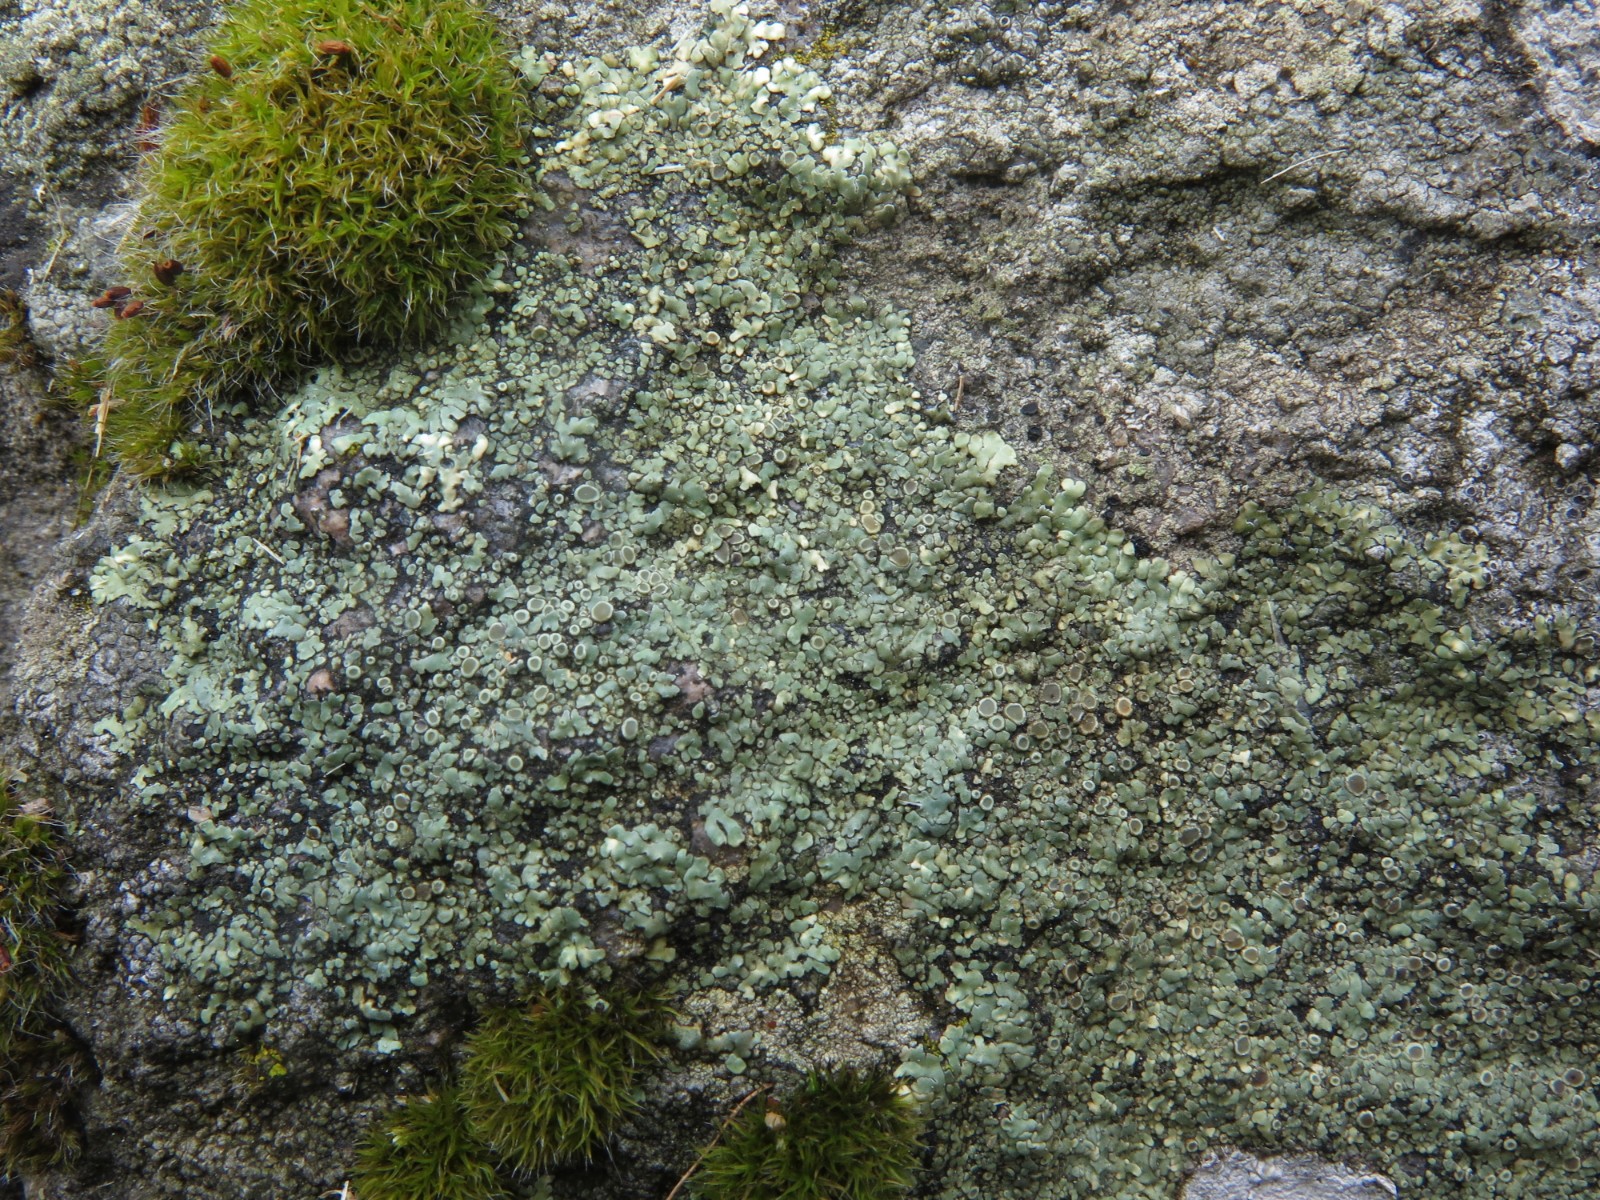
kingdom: Fungi
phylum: Ascomycota
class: Lecanoromycetes
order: Lecanorales
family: Lecanoraceae
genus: Protoparmeliopsis
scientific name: Protoparmeliopsis muralis
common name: randfliget kantskivelav
